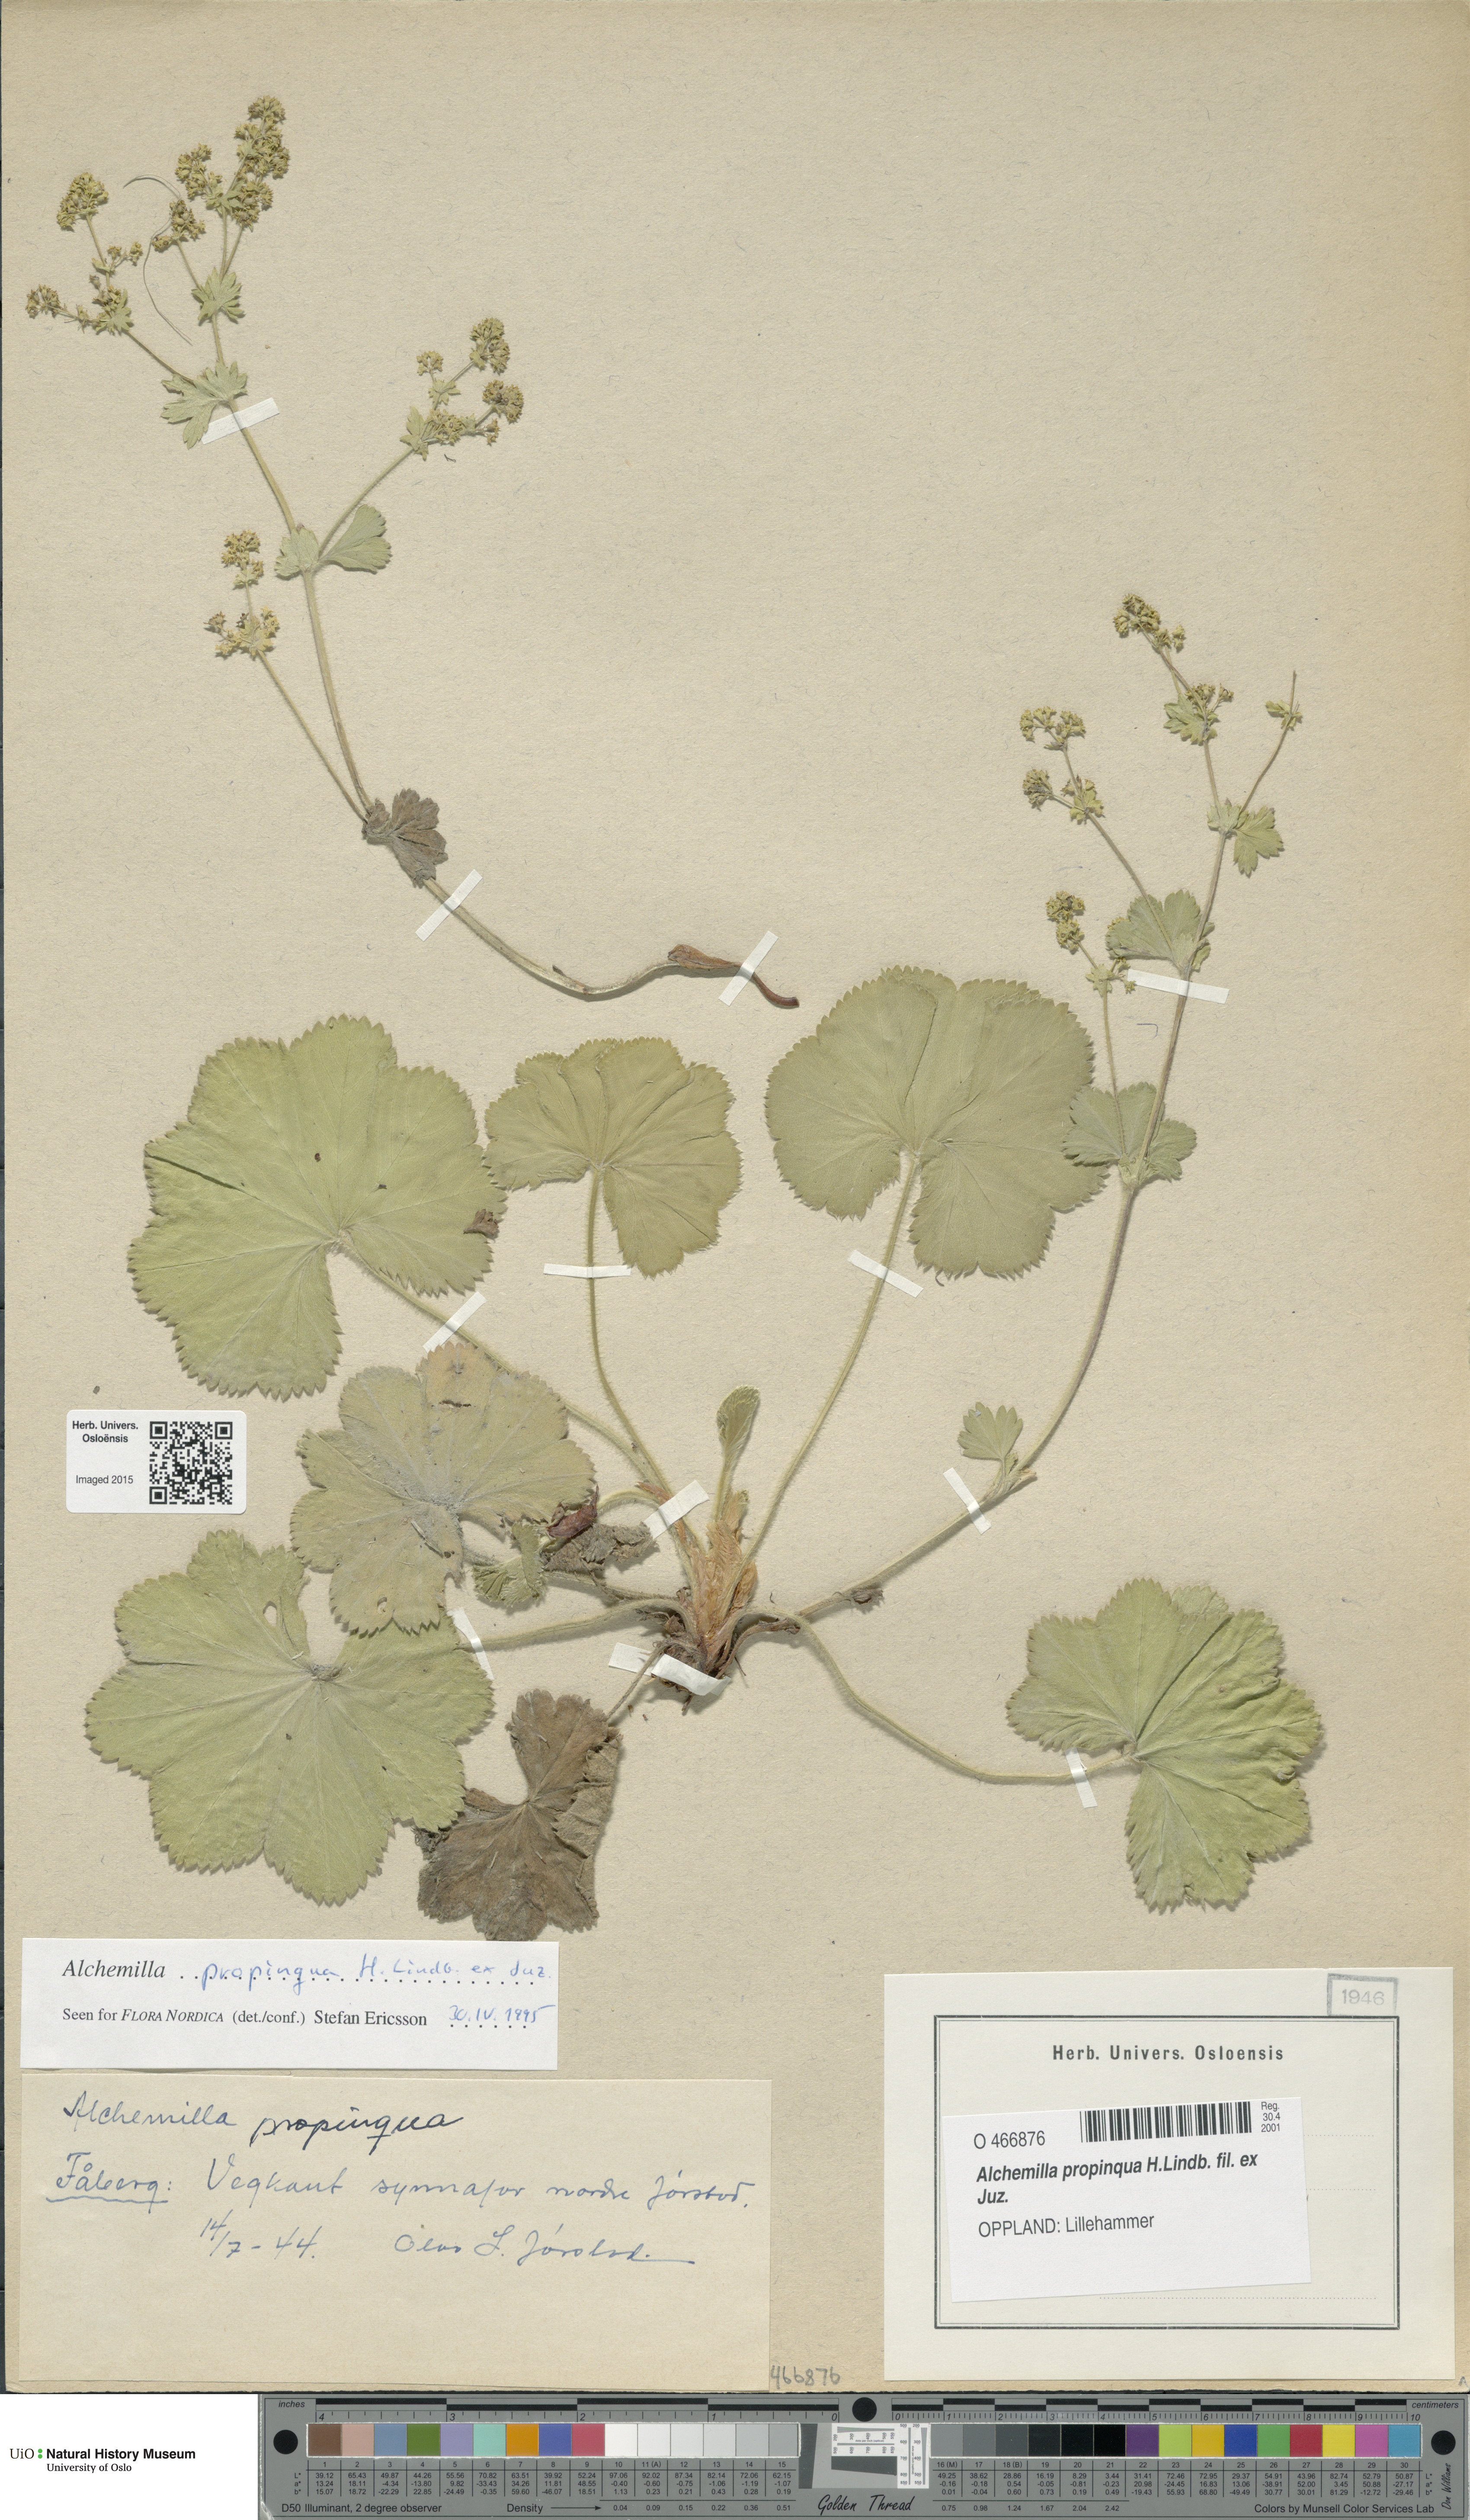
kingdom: Plantae
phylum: Tracheophyta
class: Magnoliopsida
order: Rosales
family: Rosaceae
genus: Alchemilla
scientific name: Alchemilla propinqua
